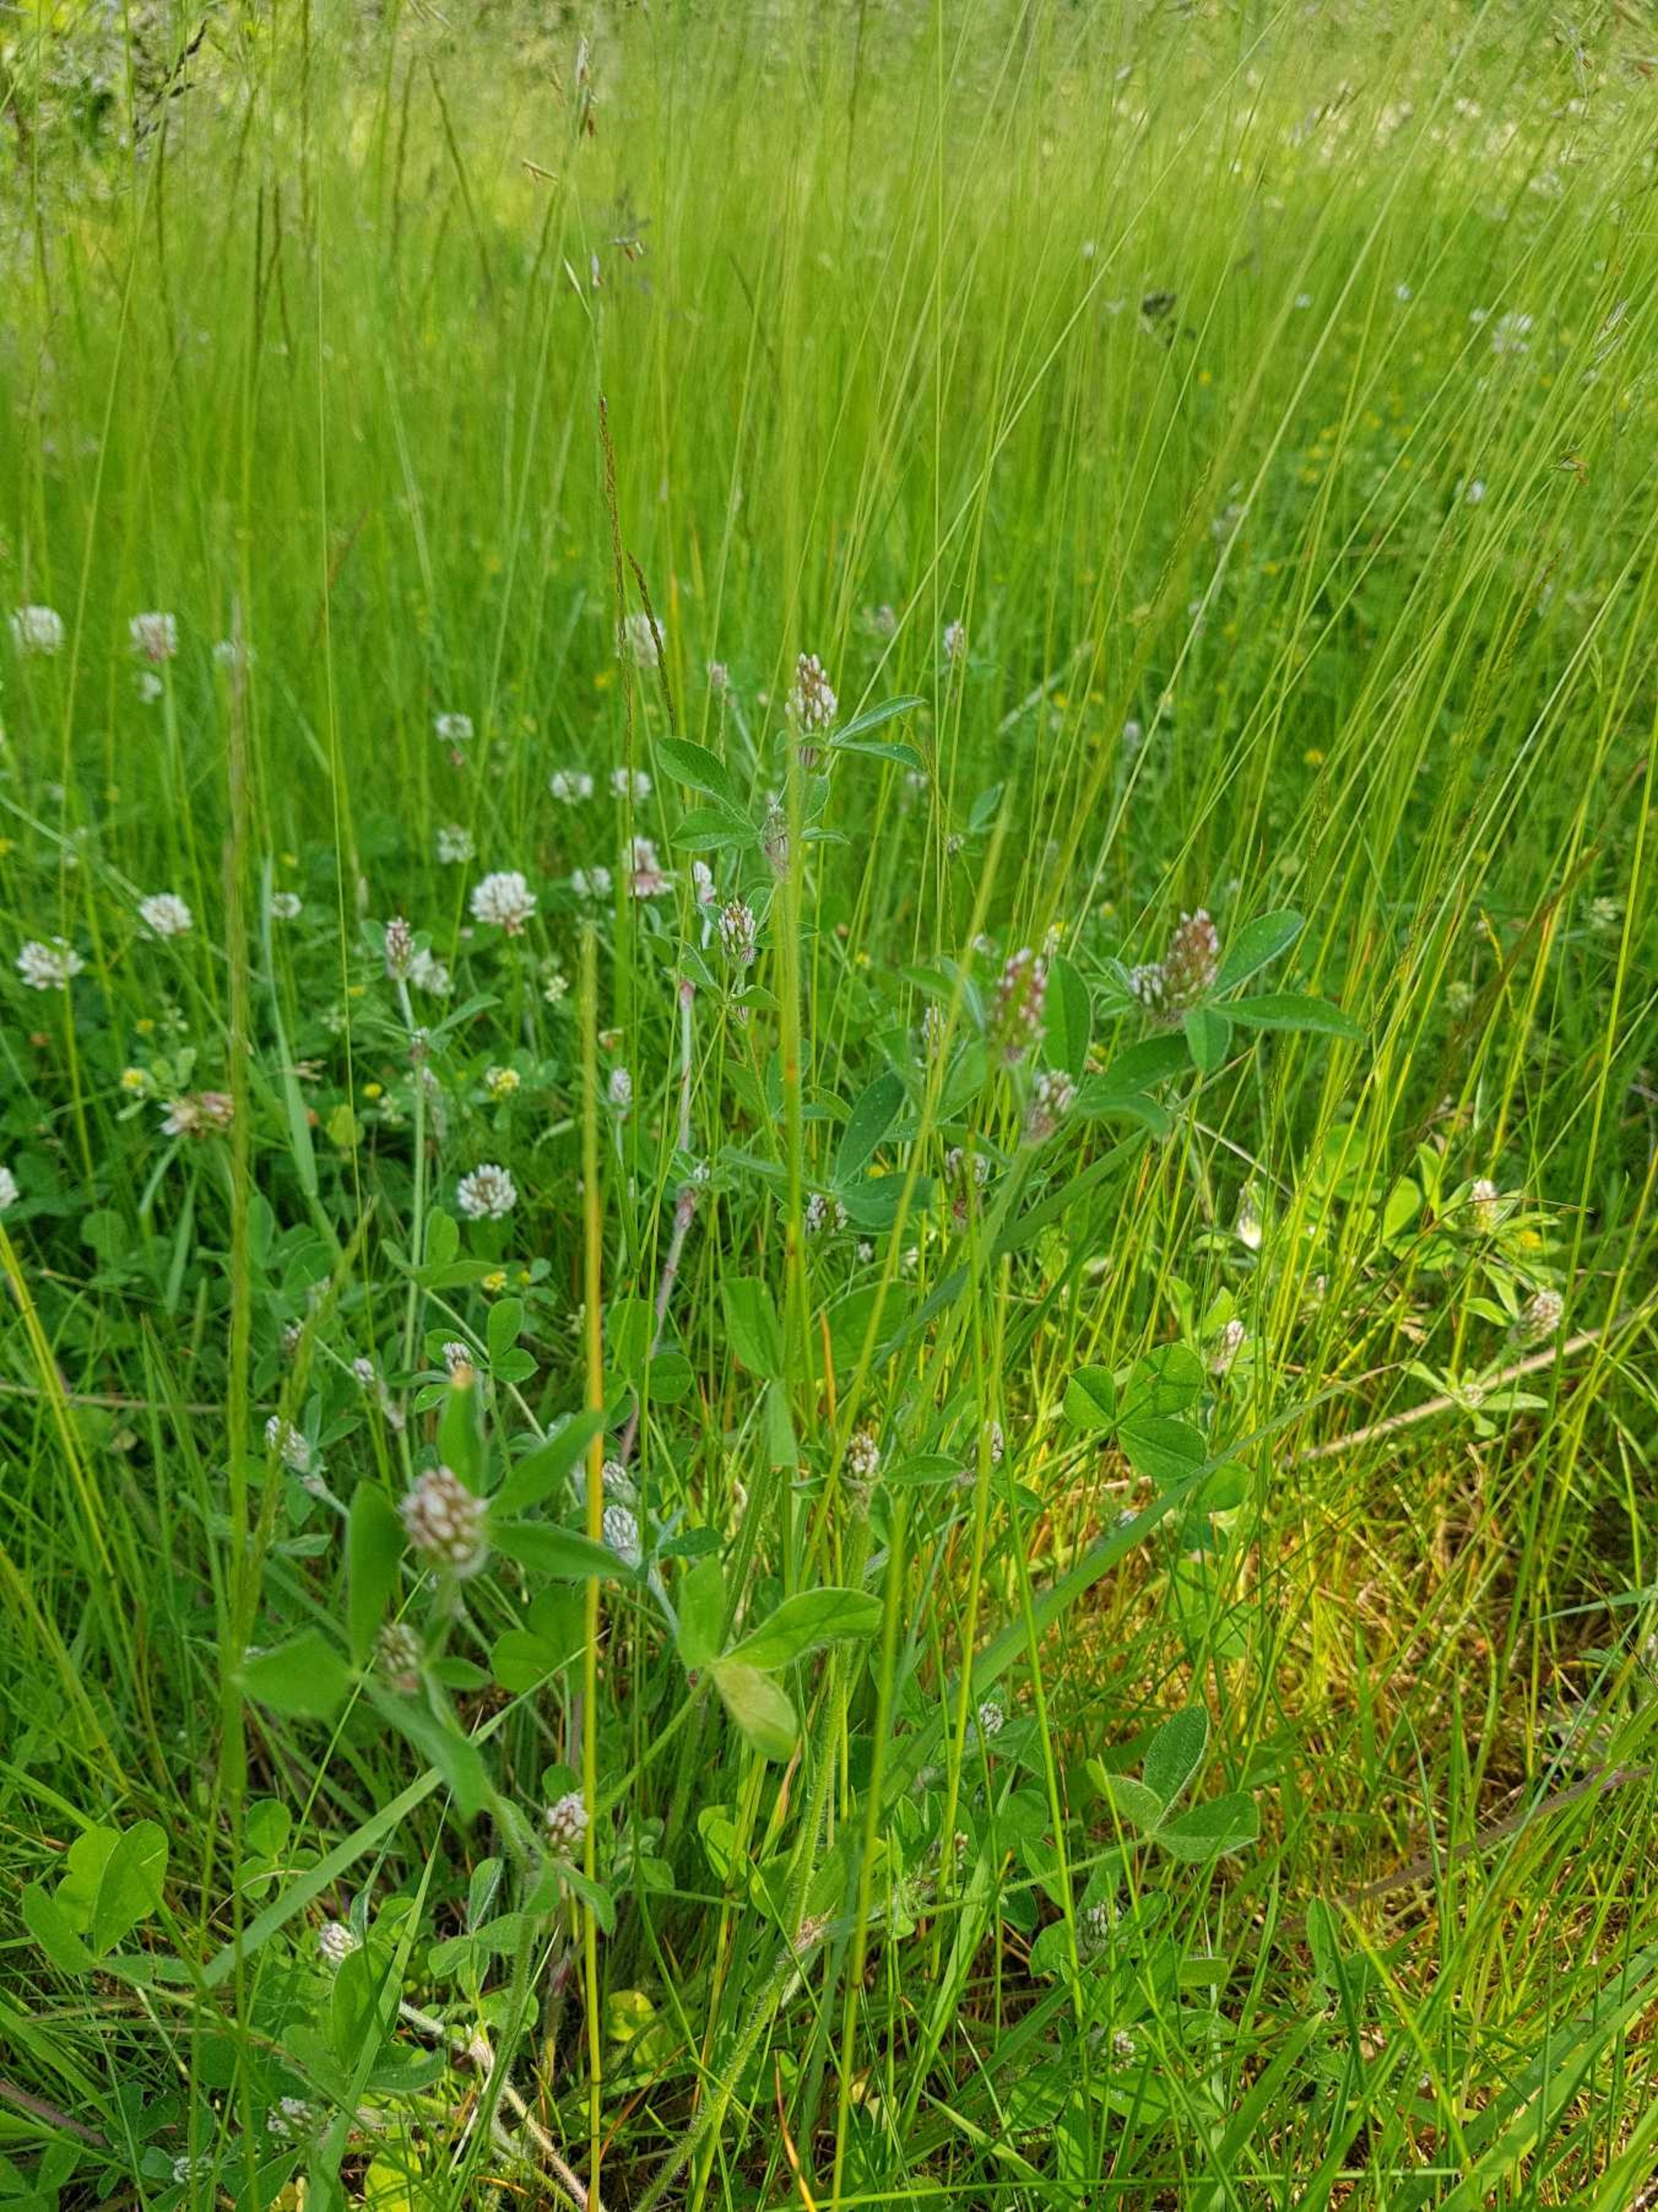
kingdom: Plantae
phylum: Tracheophyta
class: Magnoliopsida
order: Fabales
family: Fabaceae
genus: Trifolium
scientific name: Trifolium striatum
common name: Stribet kløver
